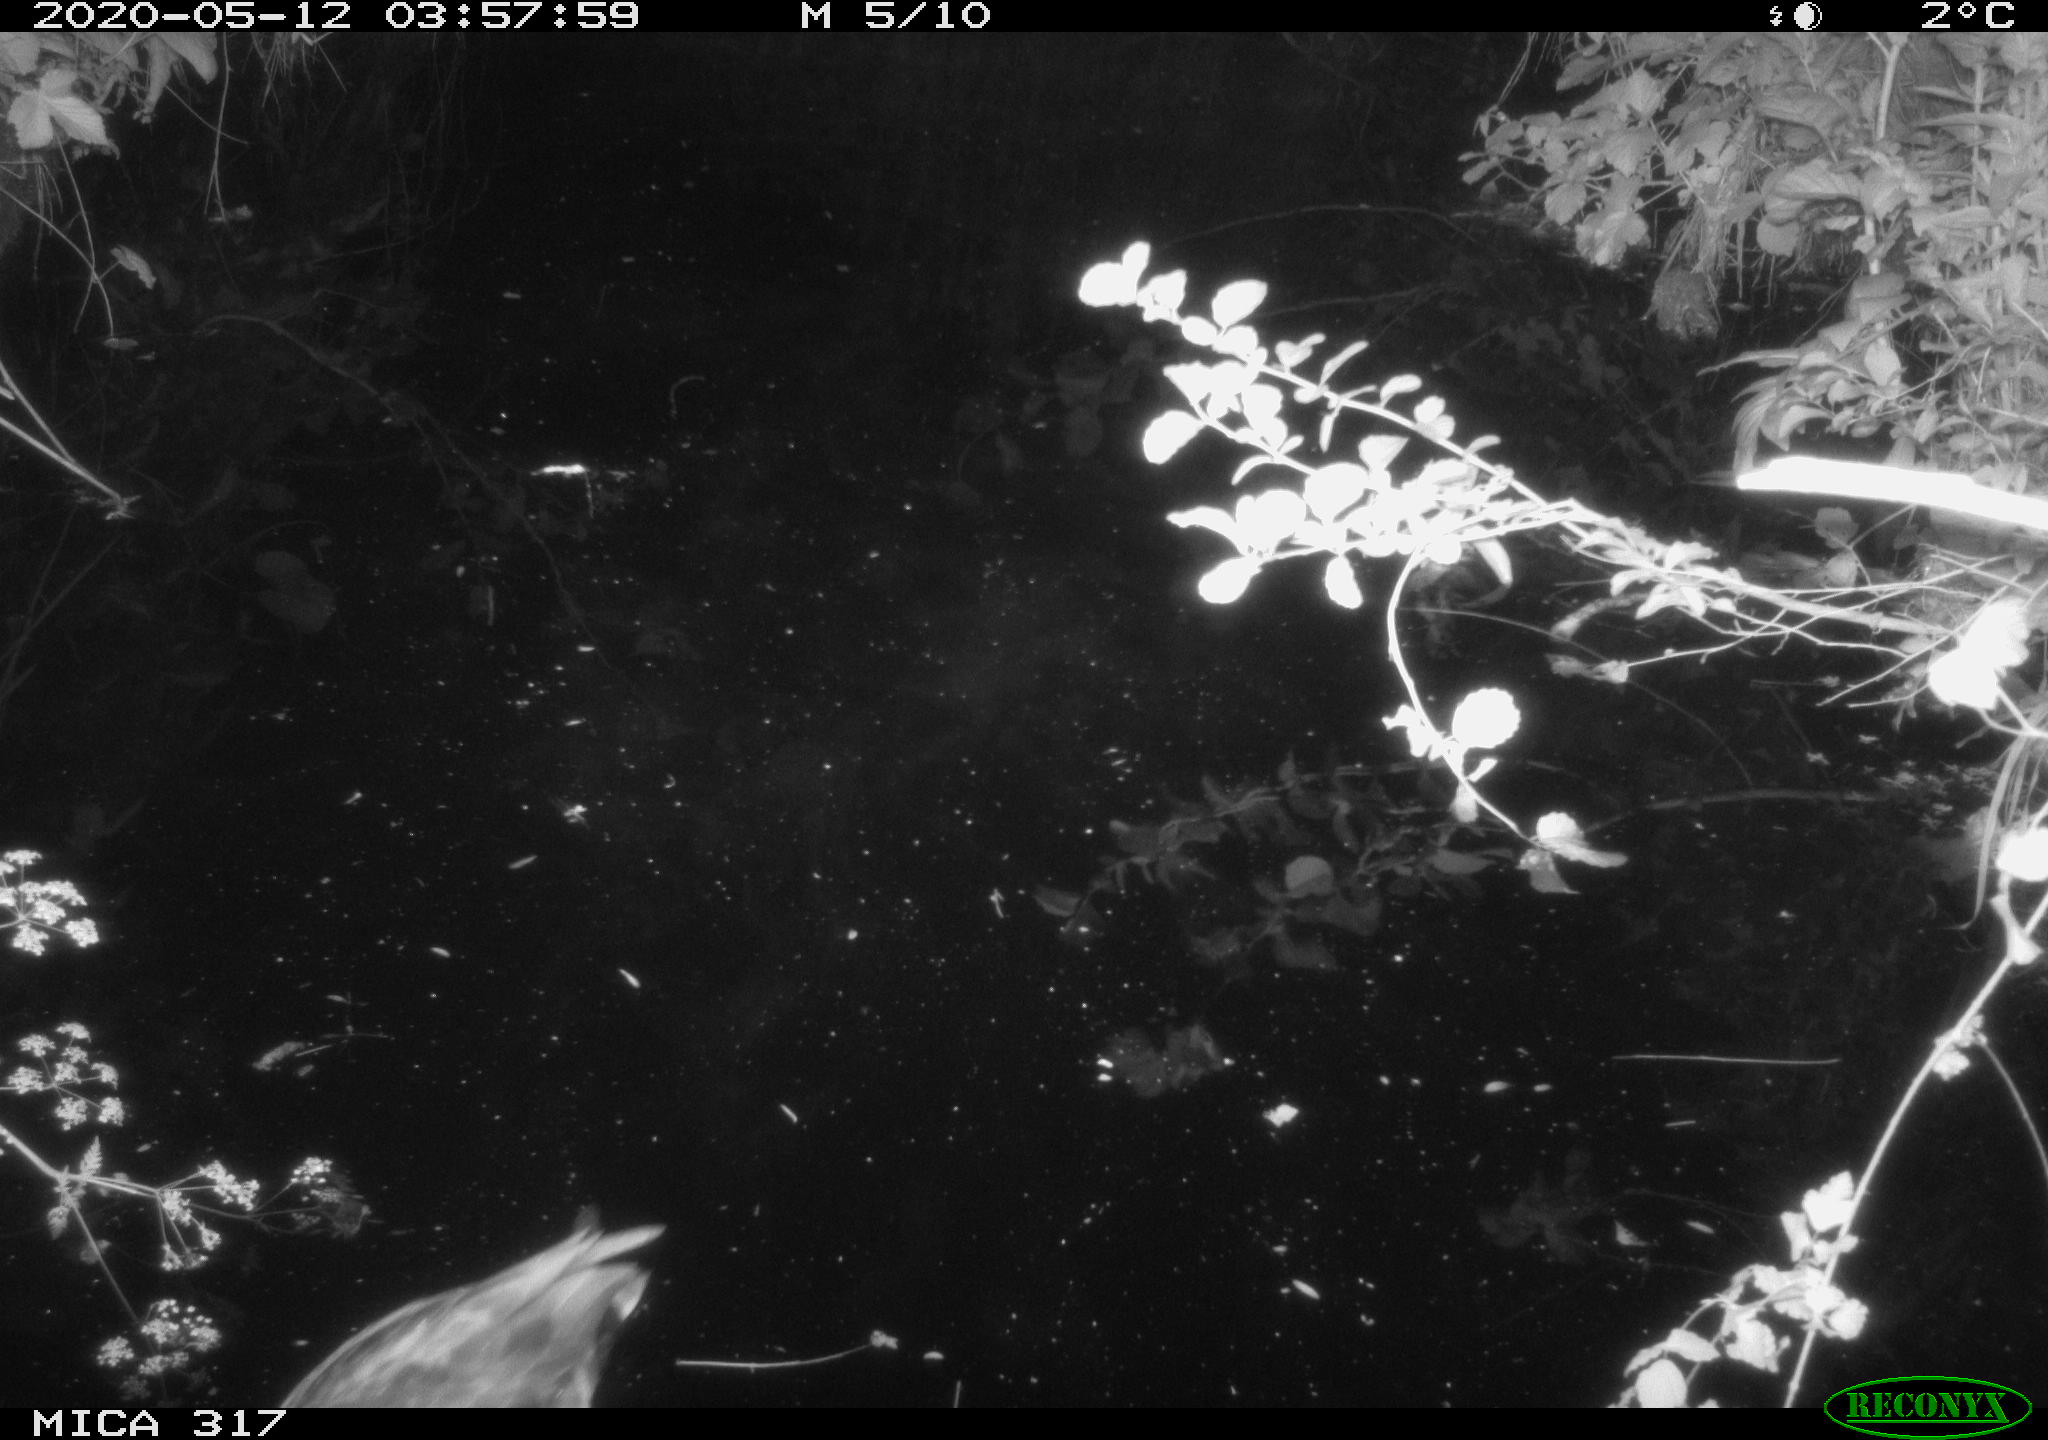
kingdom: Animalia
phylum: Chordata
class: Aves
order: Anseriformes
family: Anatidae
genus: Anas
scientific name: Anas platyrhynchos
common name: Mallard
